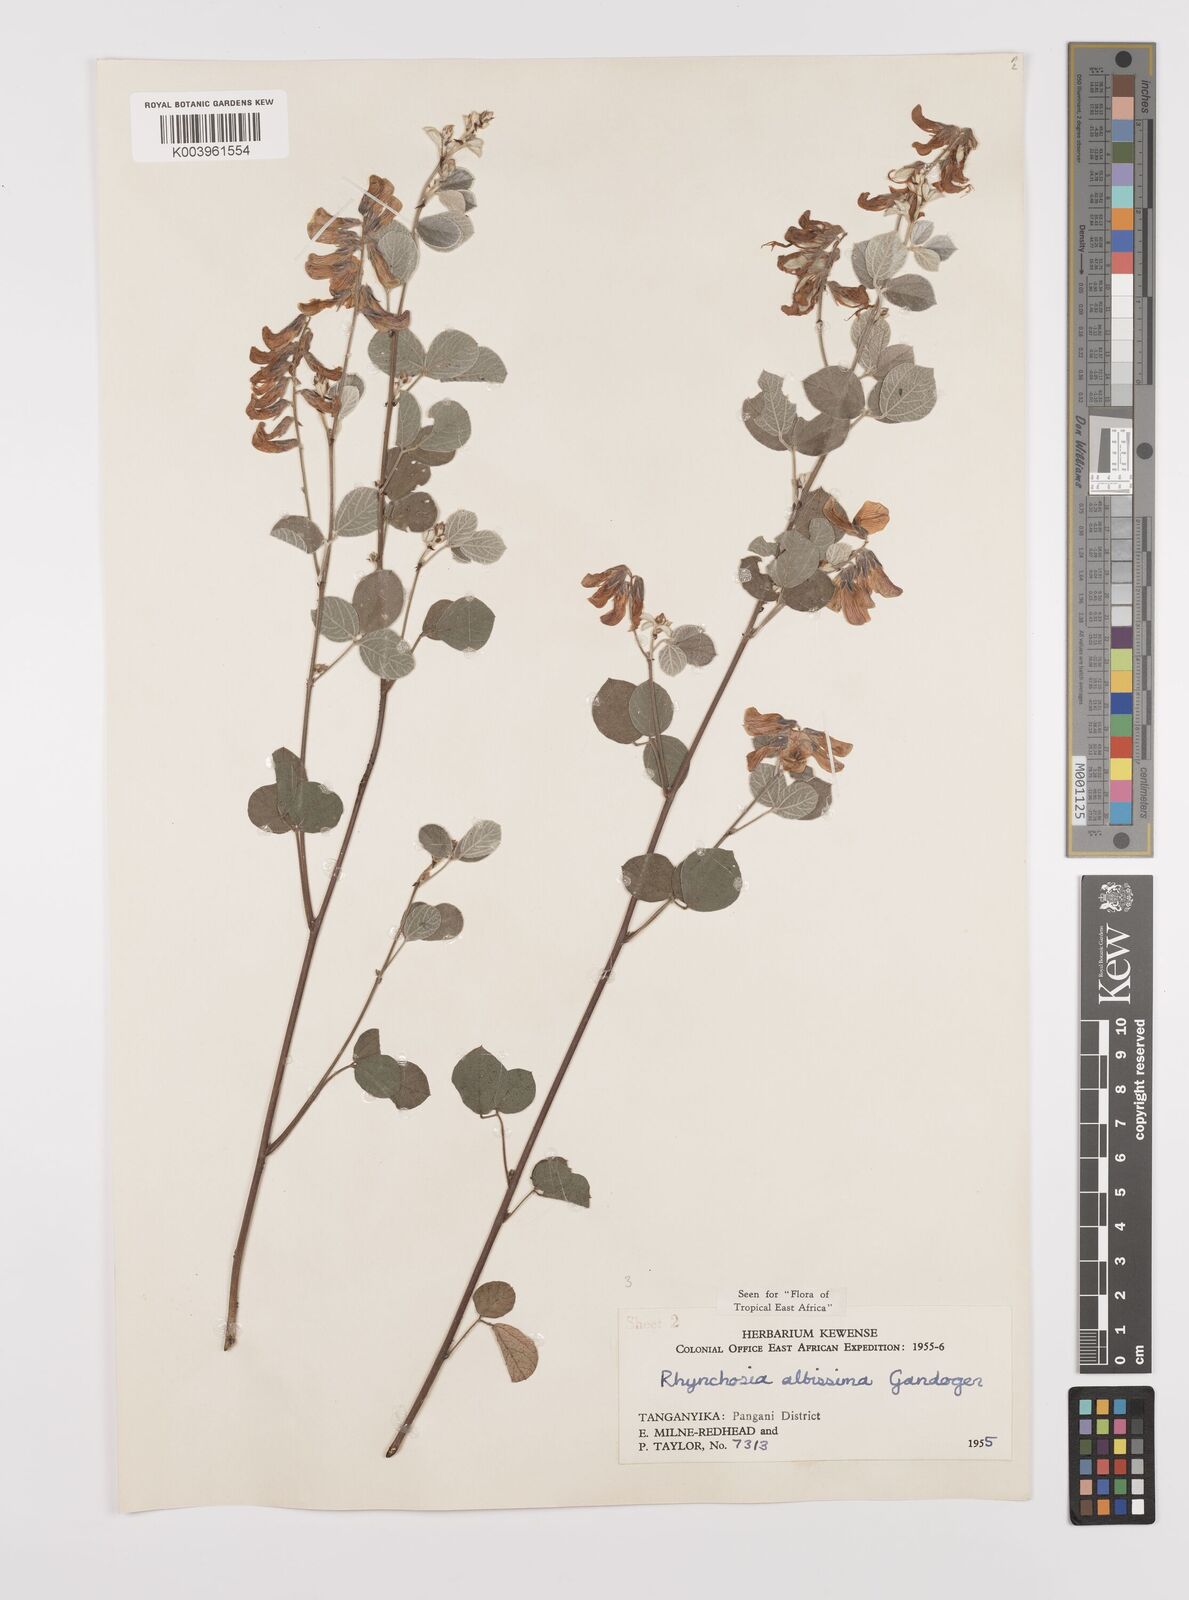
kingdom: Plantae
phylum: Tracheophyta
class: Magnoliopsida
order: Fabales
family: Fabaceae
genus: Rhynchosia
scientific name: Rhynchosia albissima
